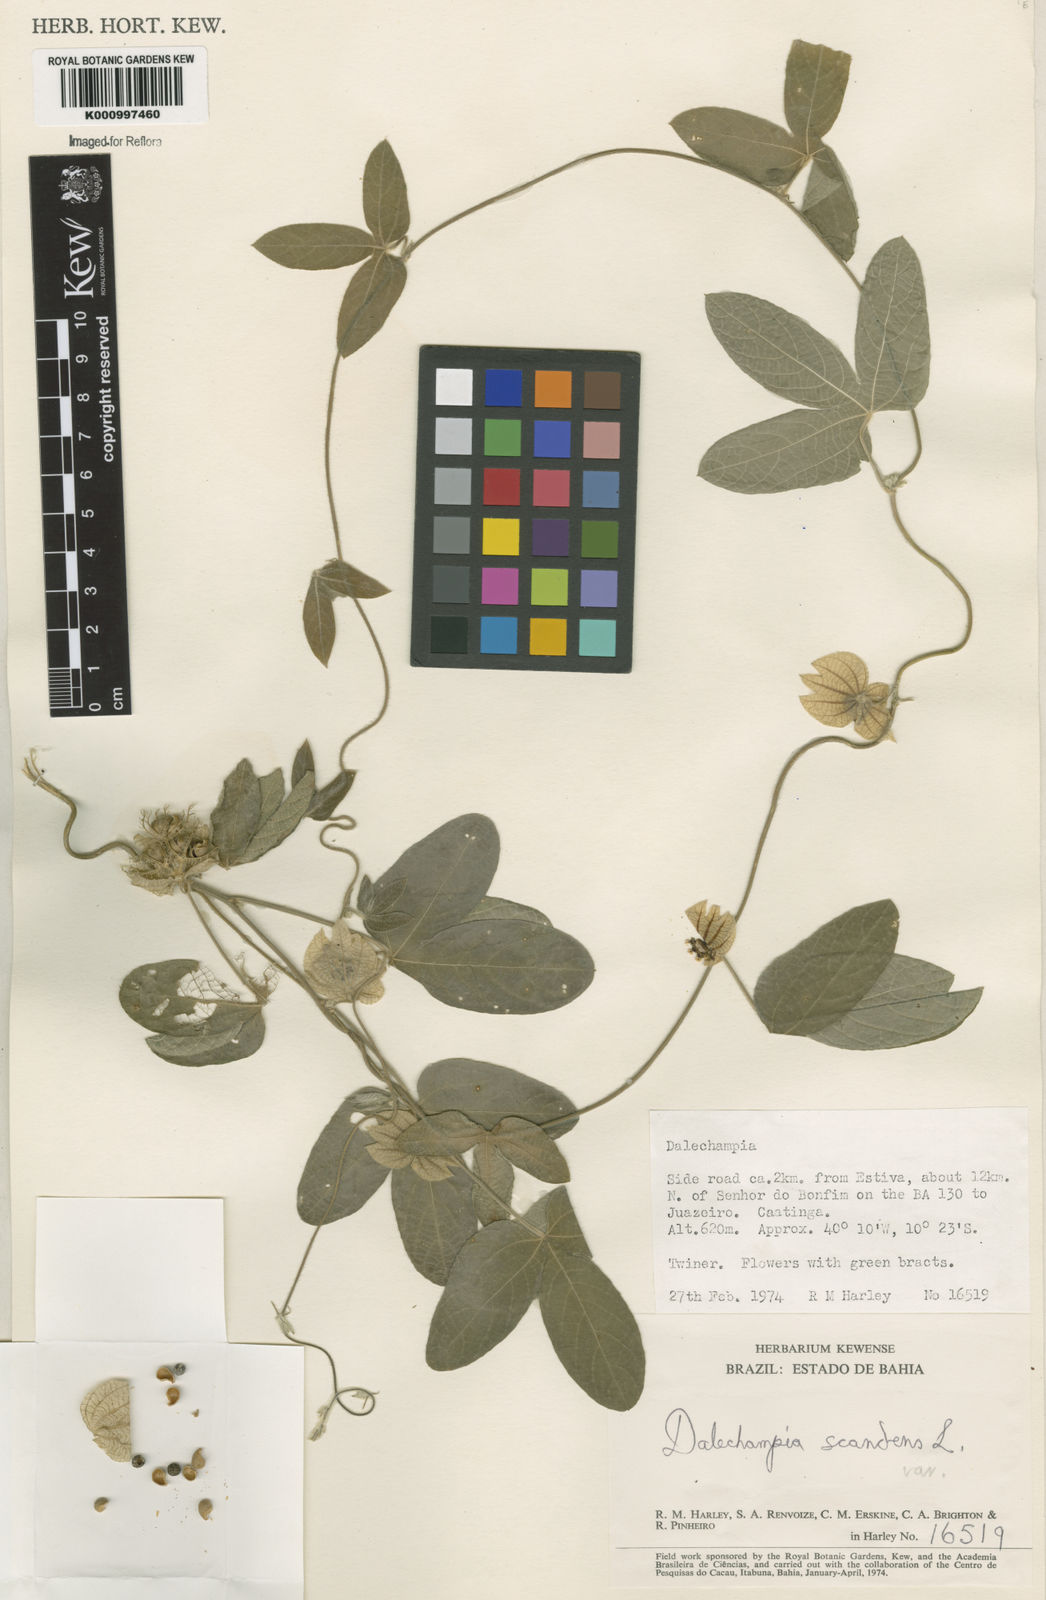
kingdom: Plantae
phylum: Tracheophyta
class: Magnoliopsida
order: Malpighiales
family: Euphorbiaceae
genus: Dalechampia
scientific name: Dalechampia scandens
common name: Spurgecreeper
